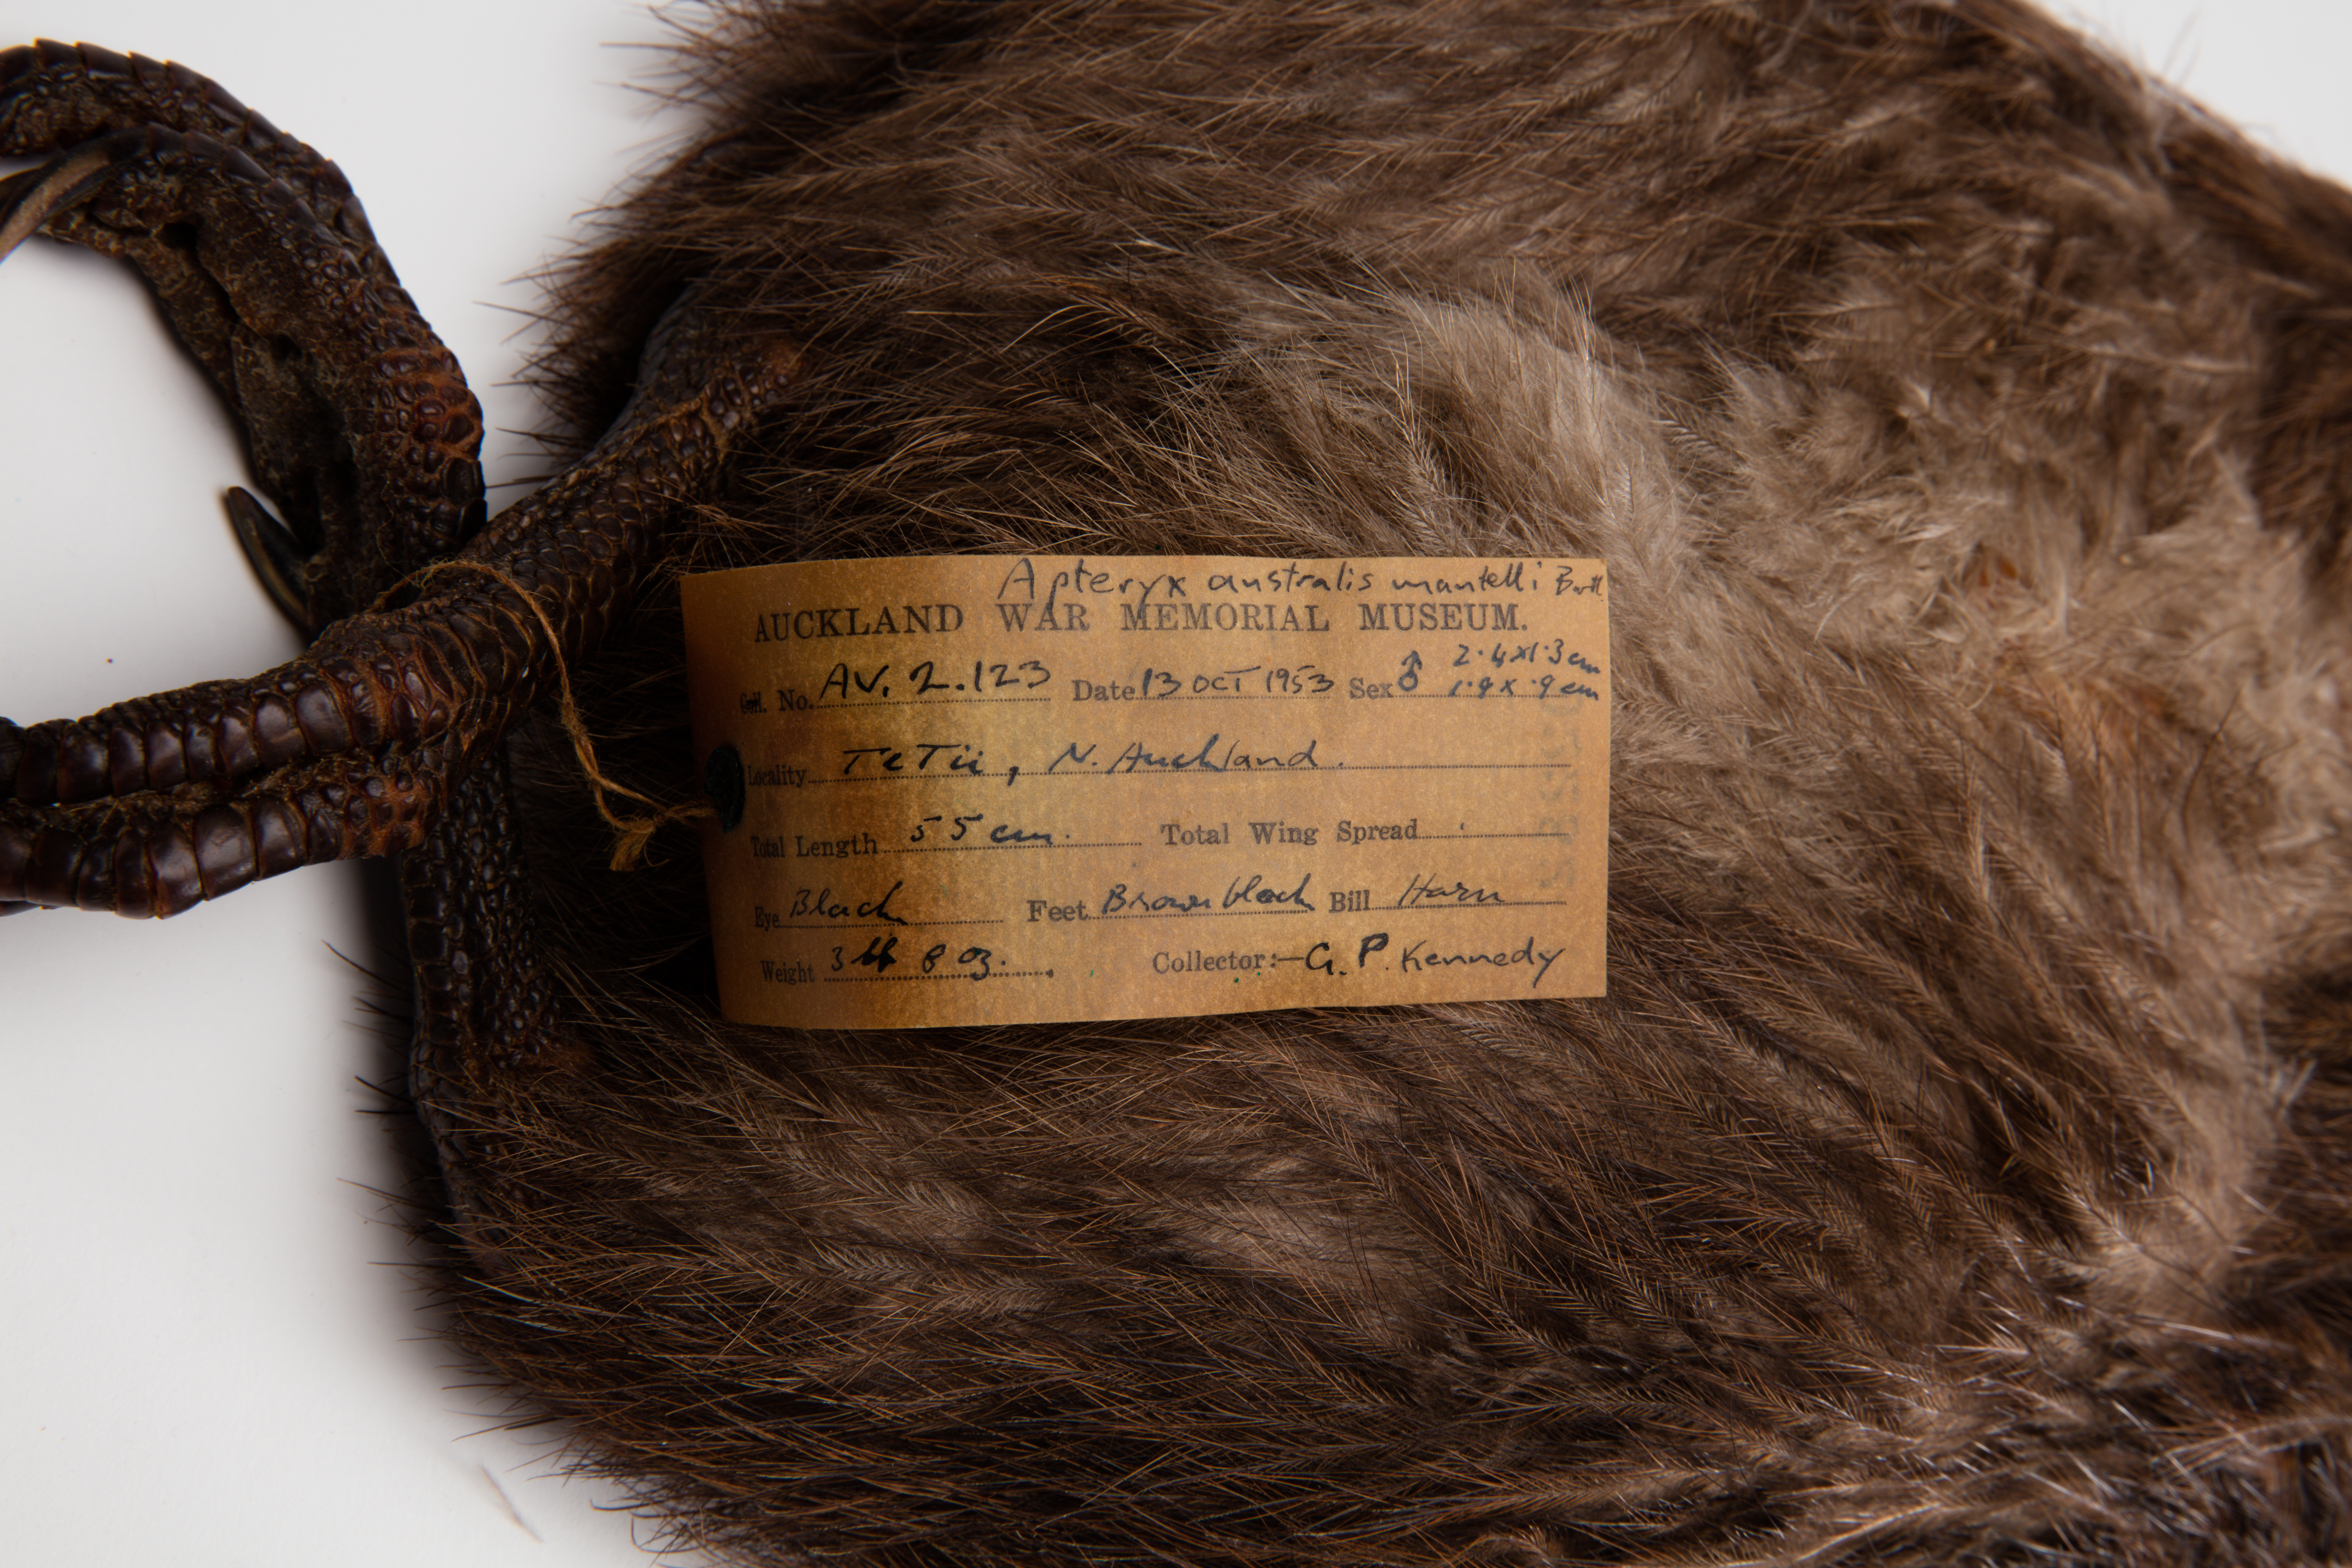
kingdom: Animalia
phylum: Chordata
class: Aves
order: Apterygiformes
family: Apterygidae
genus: Apteryx
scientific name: Apteryx mantelli
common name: North island brown kiwi
